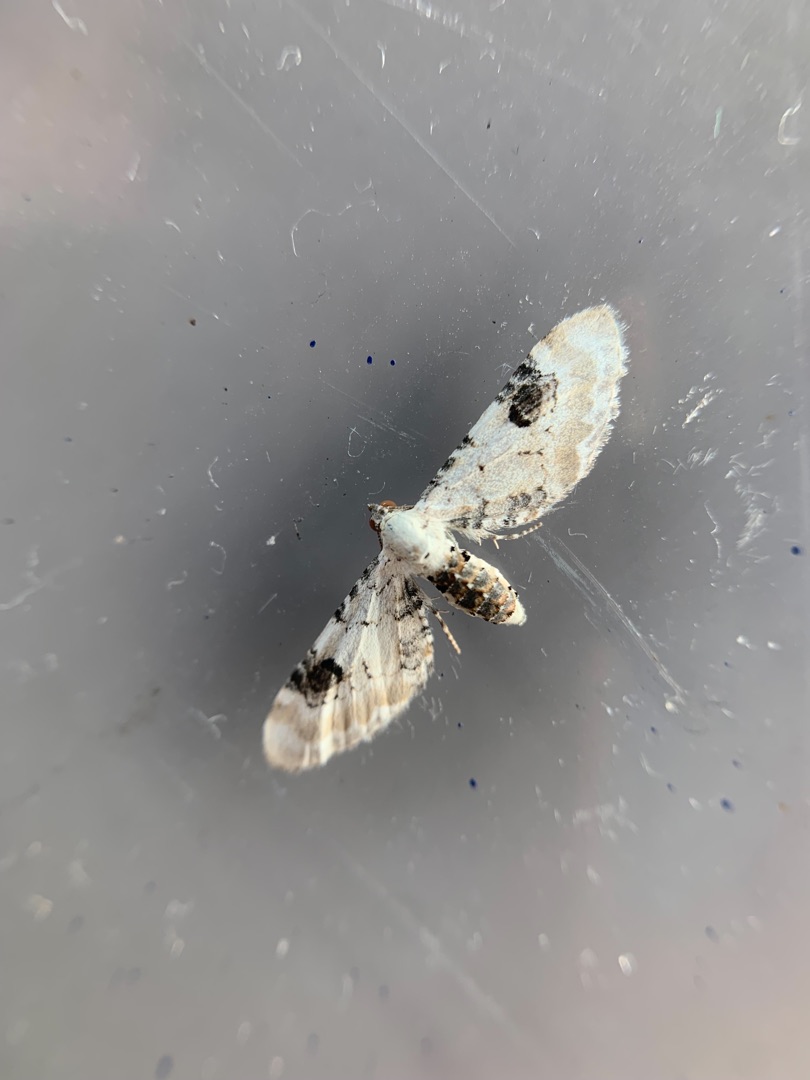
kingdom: Animalia
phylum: Arthropoda
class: Insecta
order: Lepidoptera
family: Geometridae
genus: Eupithecia
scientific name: Eupithecia centaureata
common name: Hvid dværgmåler
